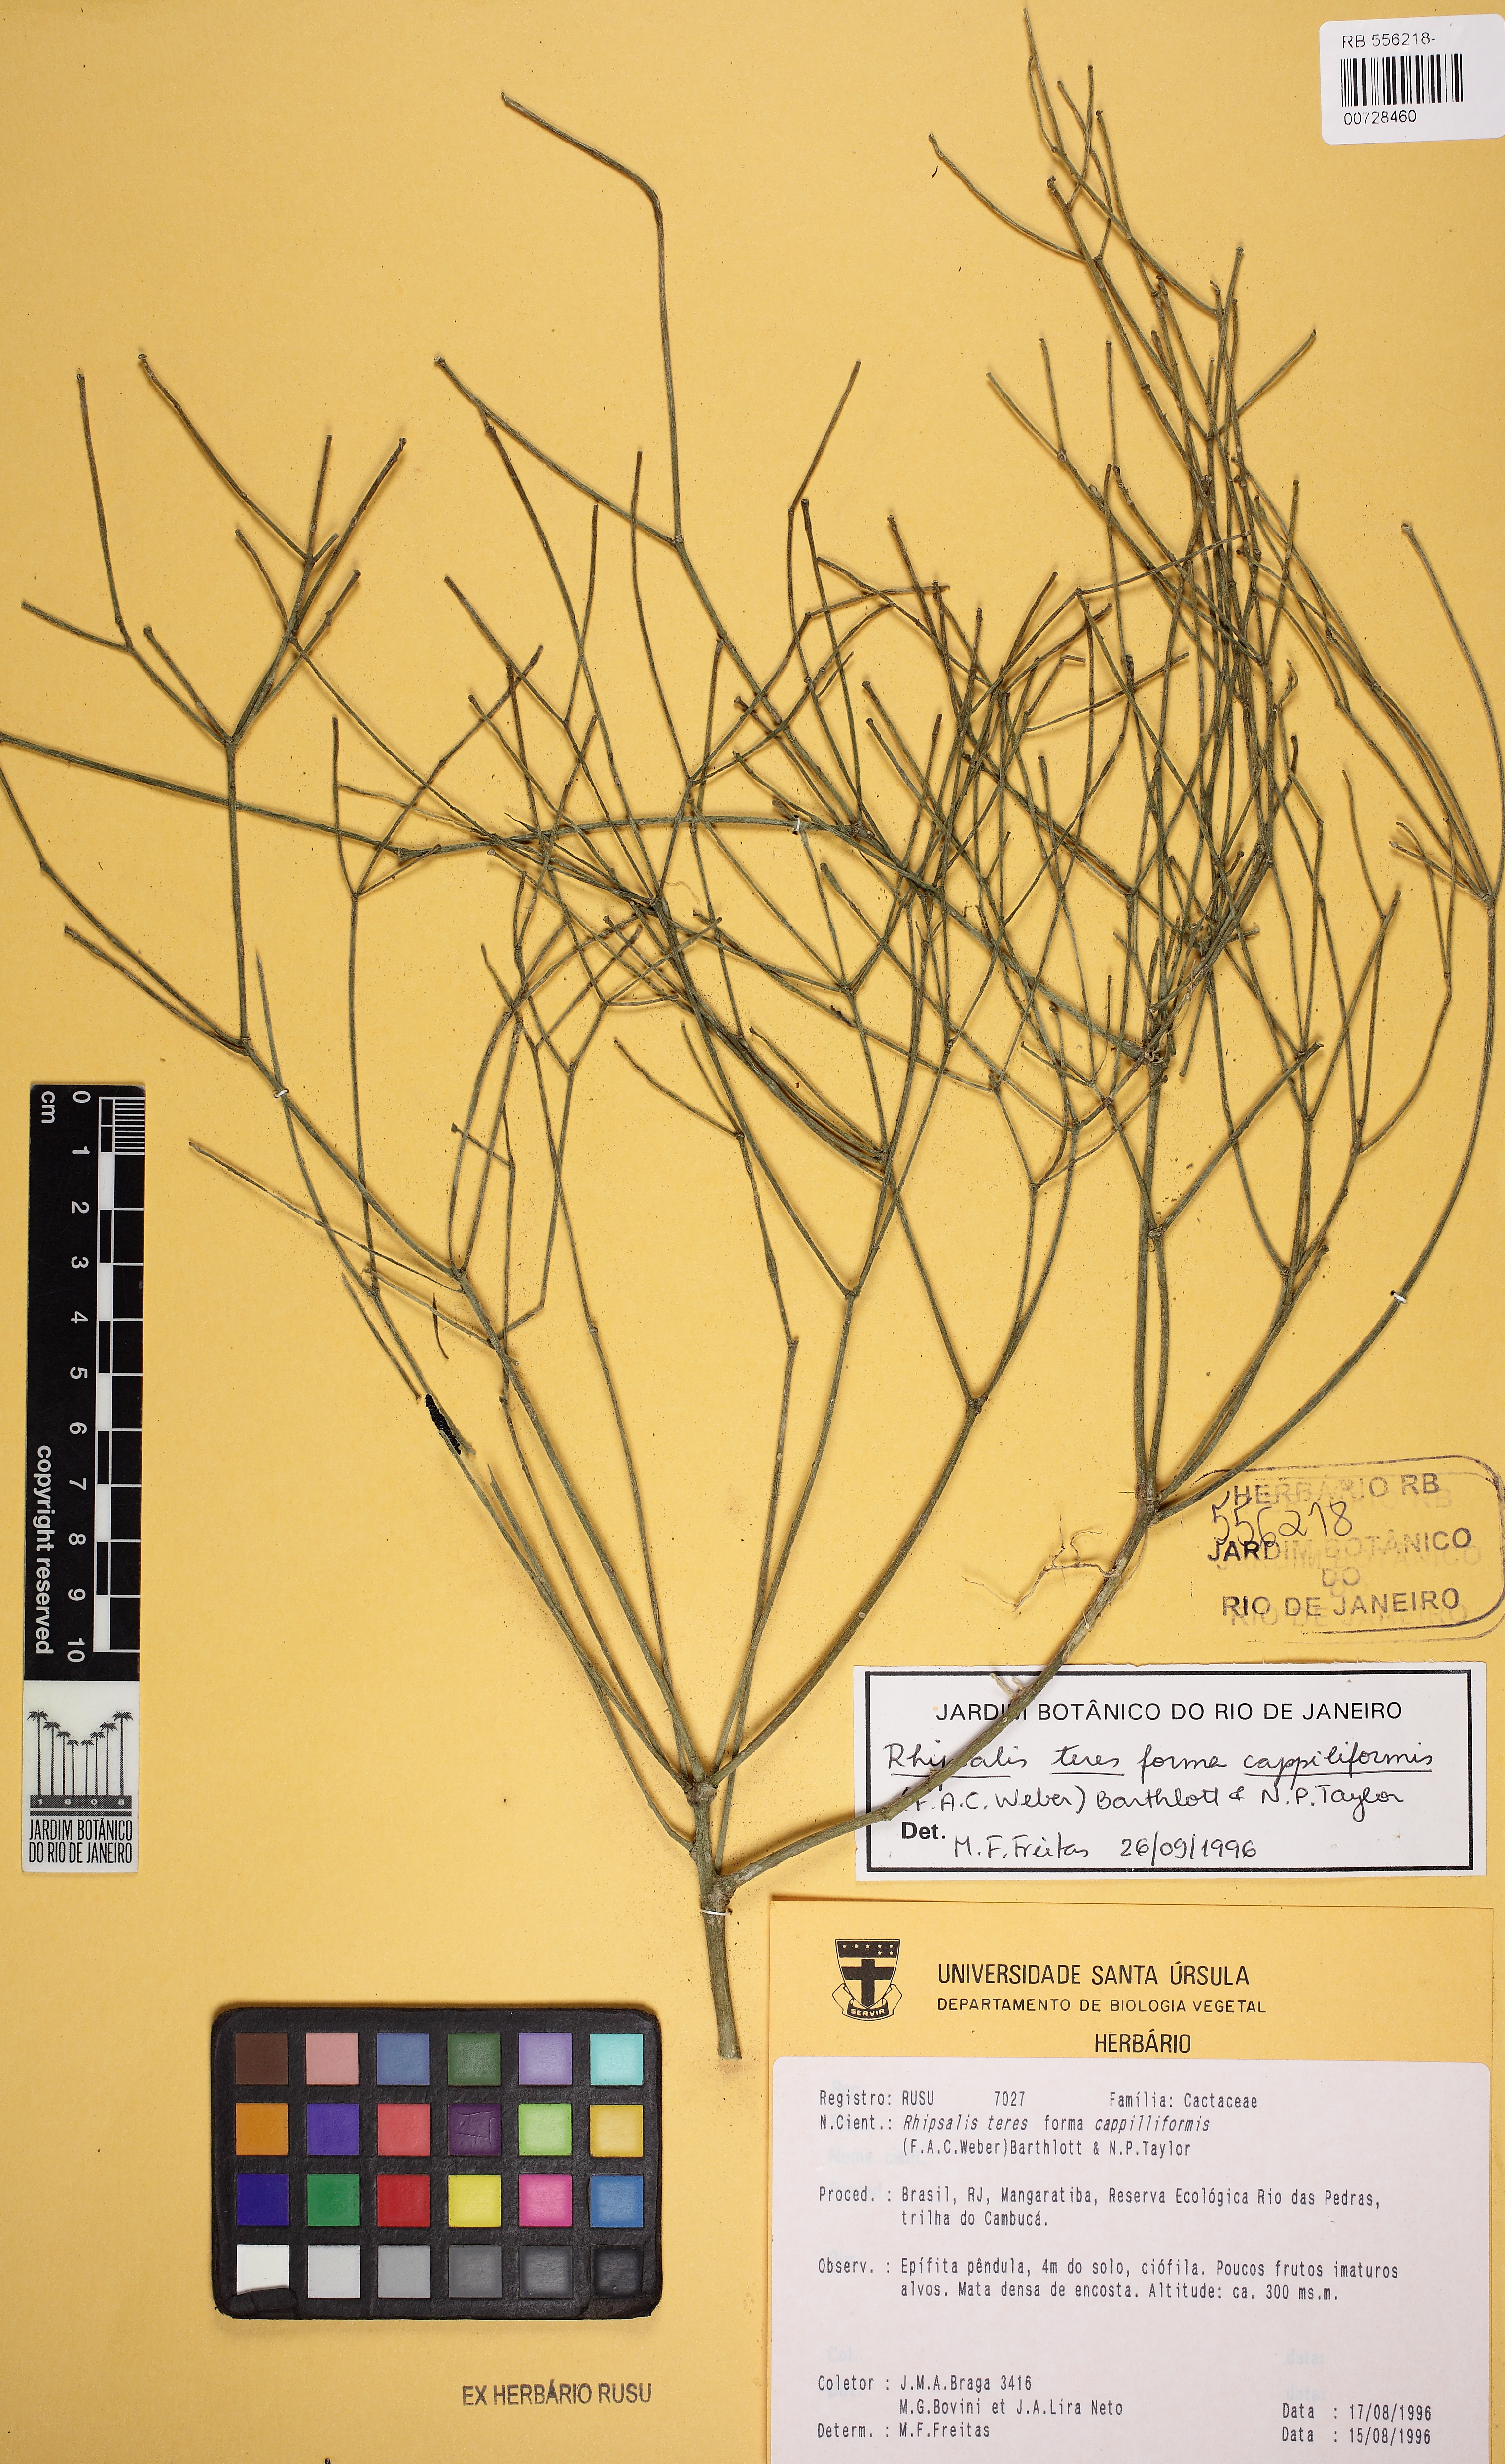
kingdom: Plantae
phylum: Tracheophyta
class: Magnoliopsida
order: Caryophyllales
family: Cactaceae
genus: Rhipsalis
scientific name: Rhipsalis teres
